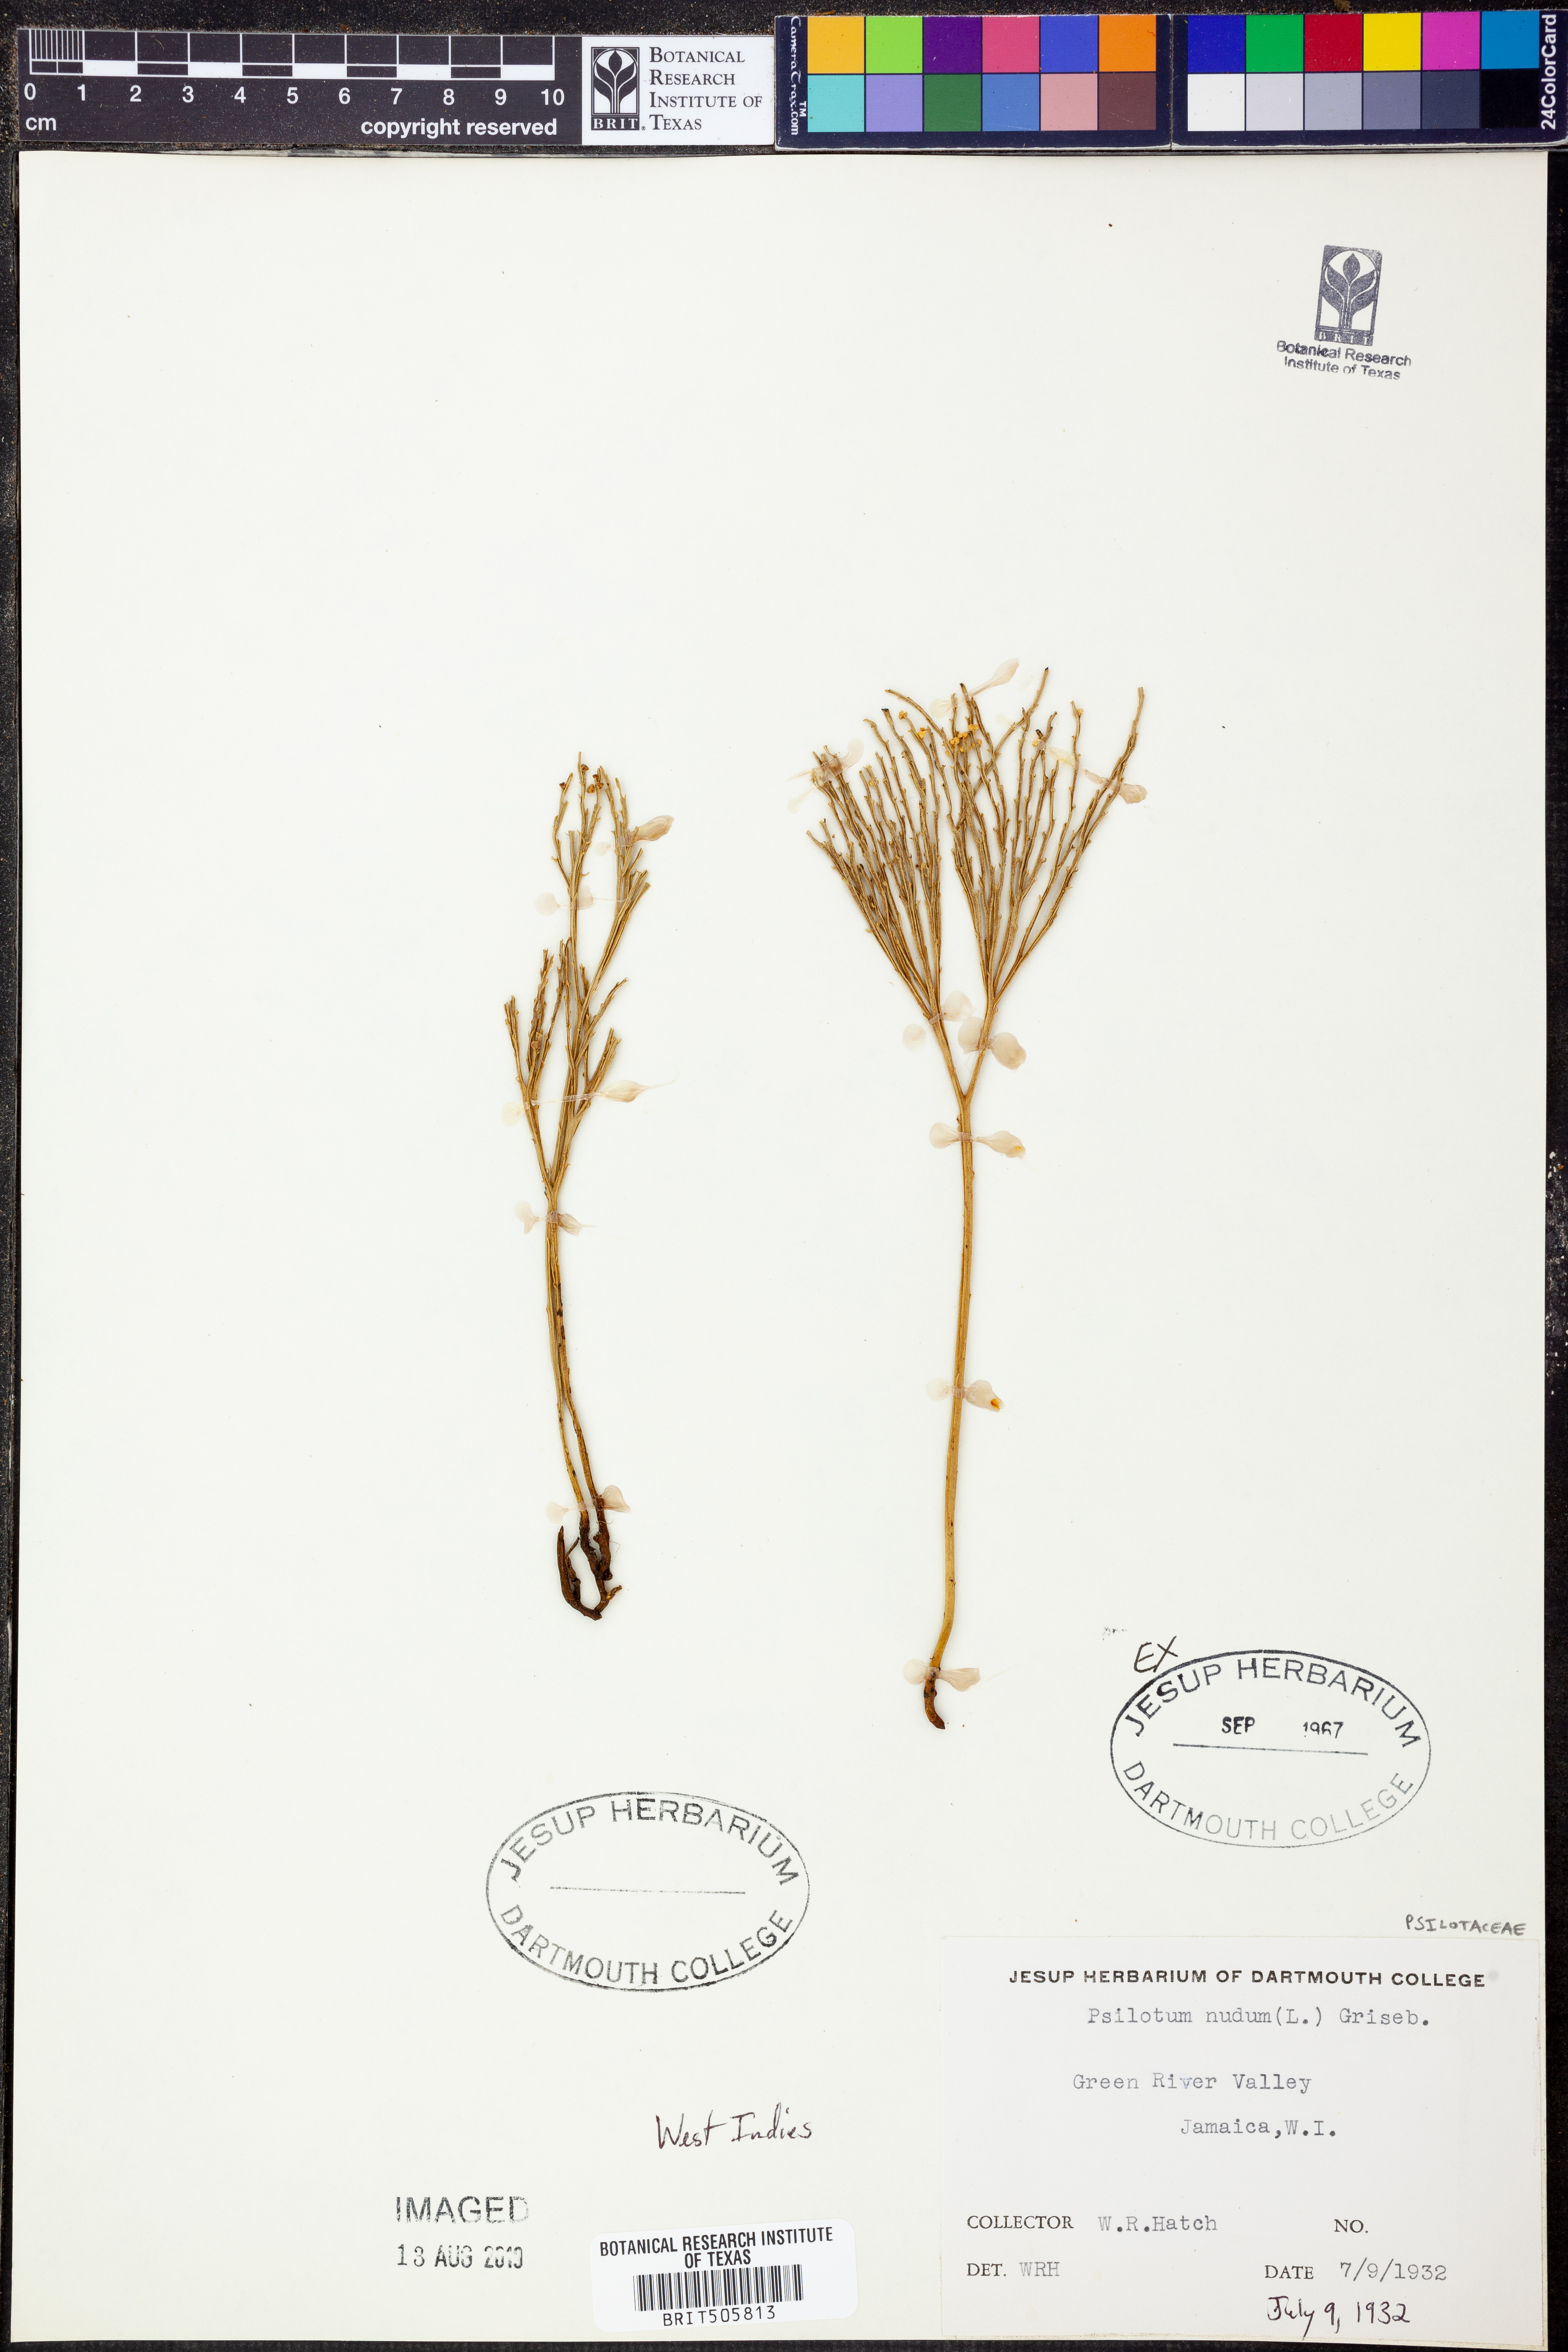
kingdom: Plantae
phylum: Tracheophyta
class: Polypodiopsida
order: Psilotales
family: Psilotaceae
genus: Psilotum
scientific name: Psilotum nudum
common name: Skeleton fork fern
